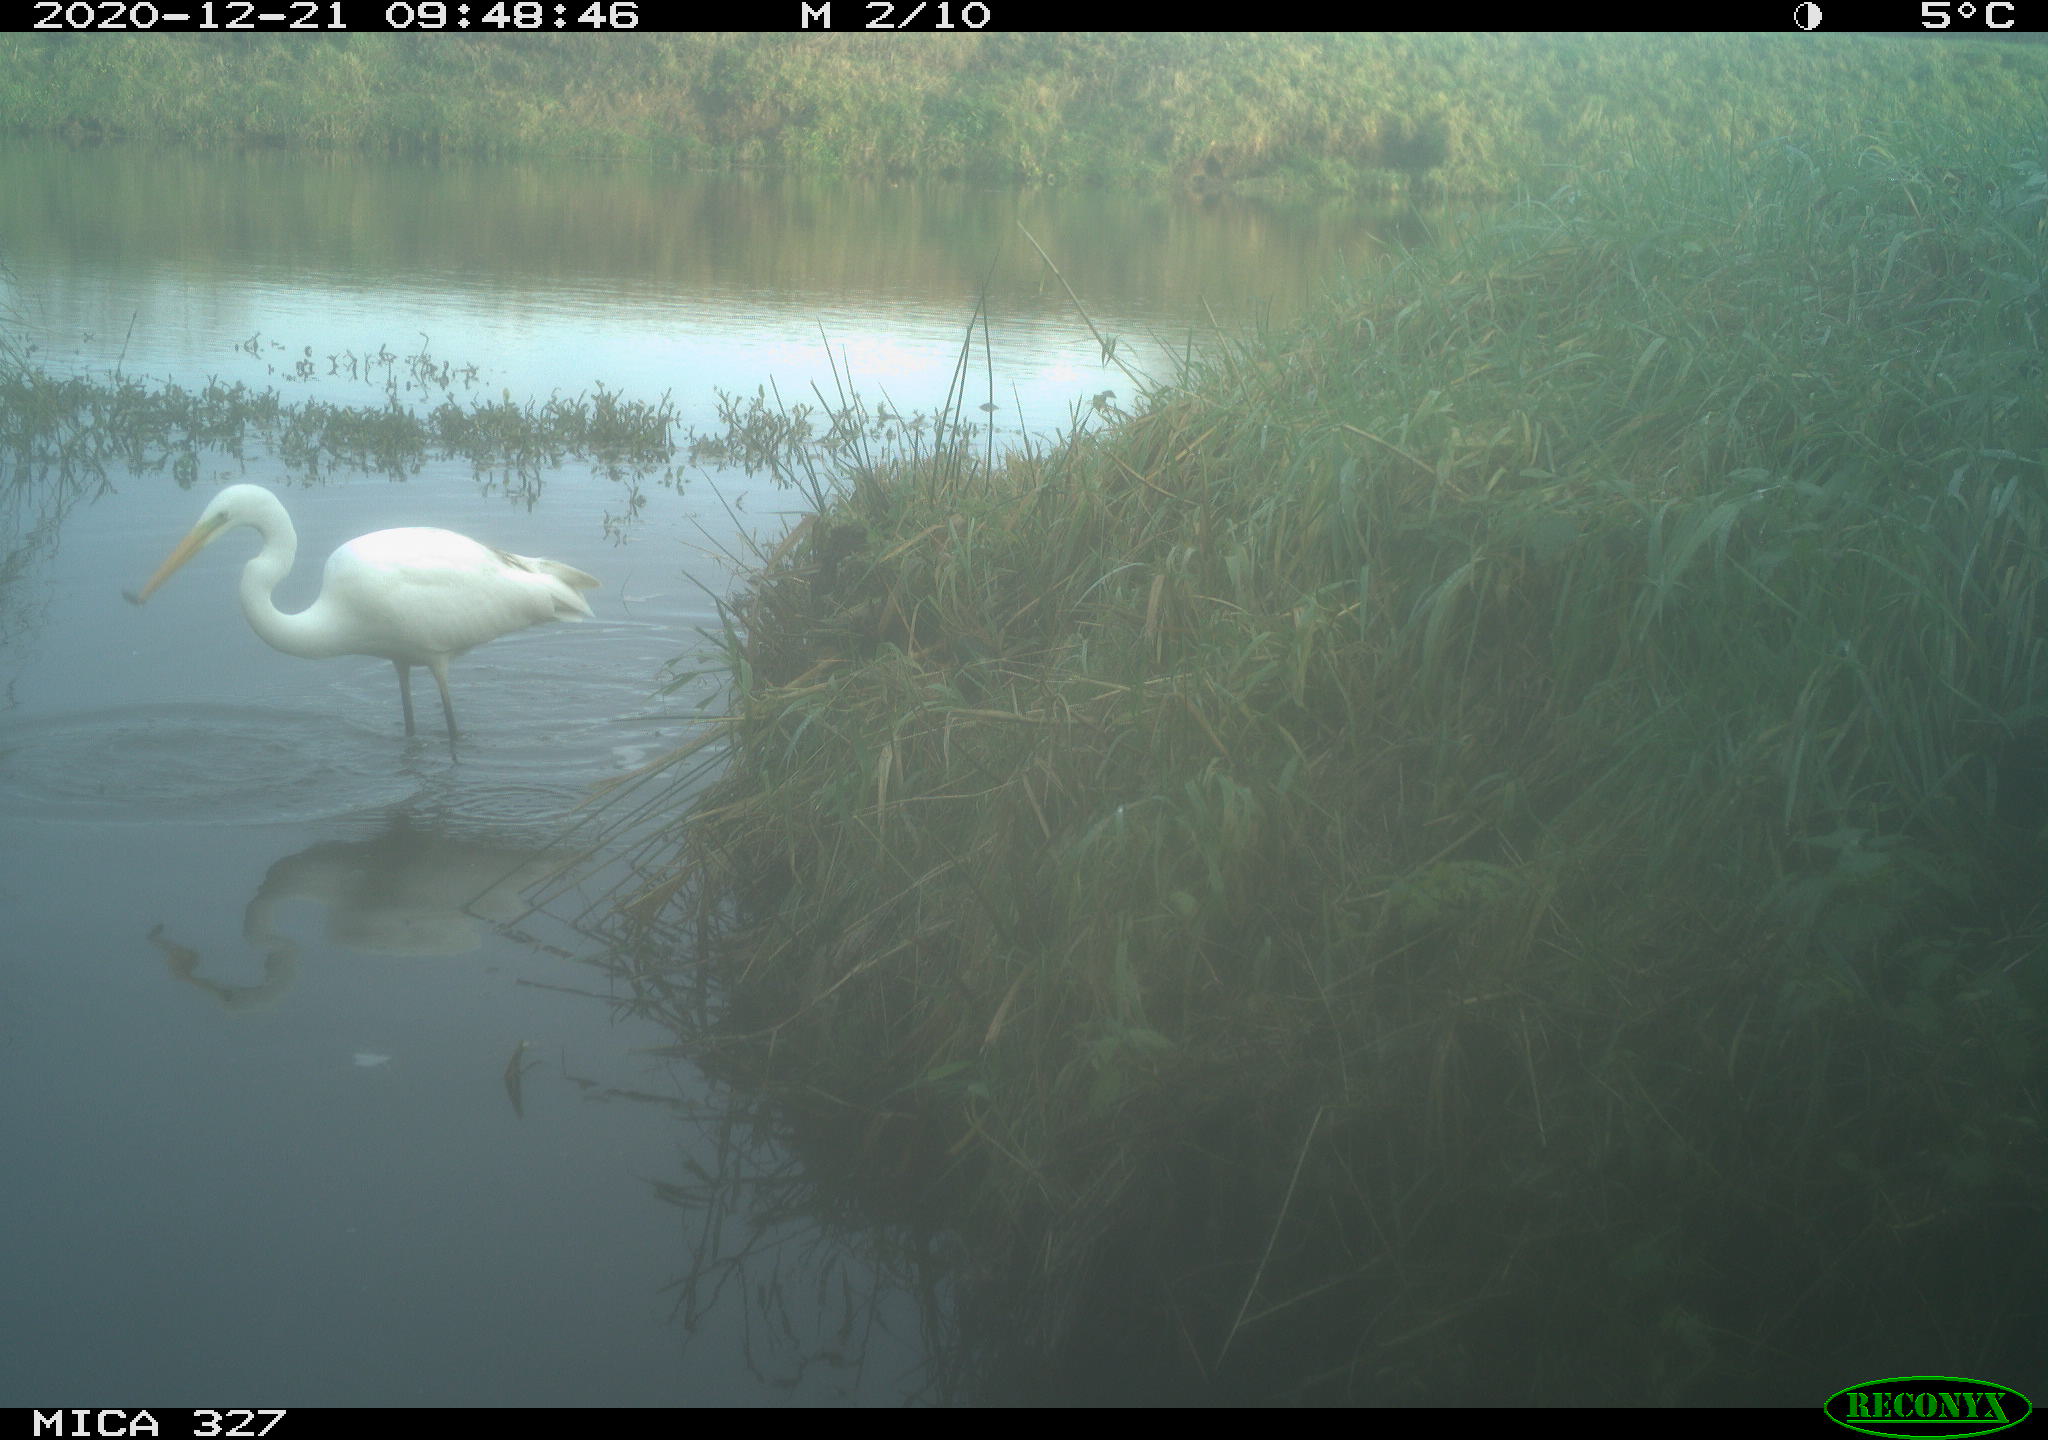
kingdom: Animalia
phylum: Chordata
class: Aves
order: Pelecaniformes
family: Ardeidae
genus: Ardea
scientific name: Ardea alba
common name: Great egret
